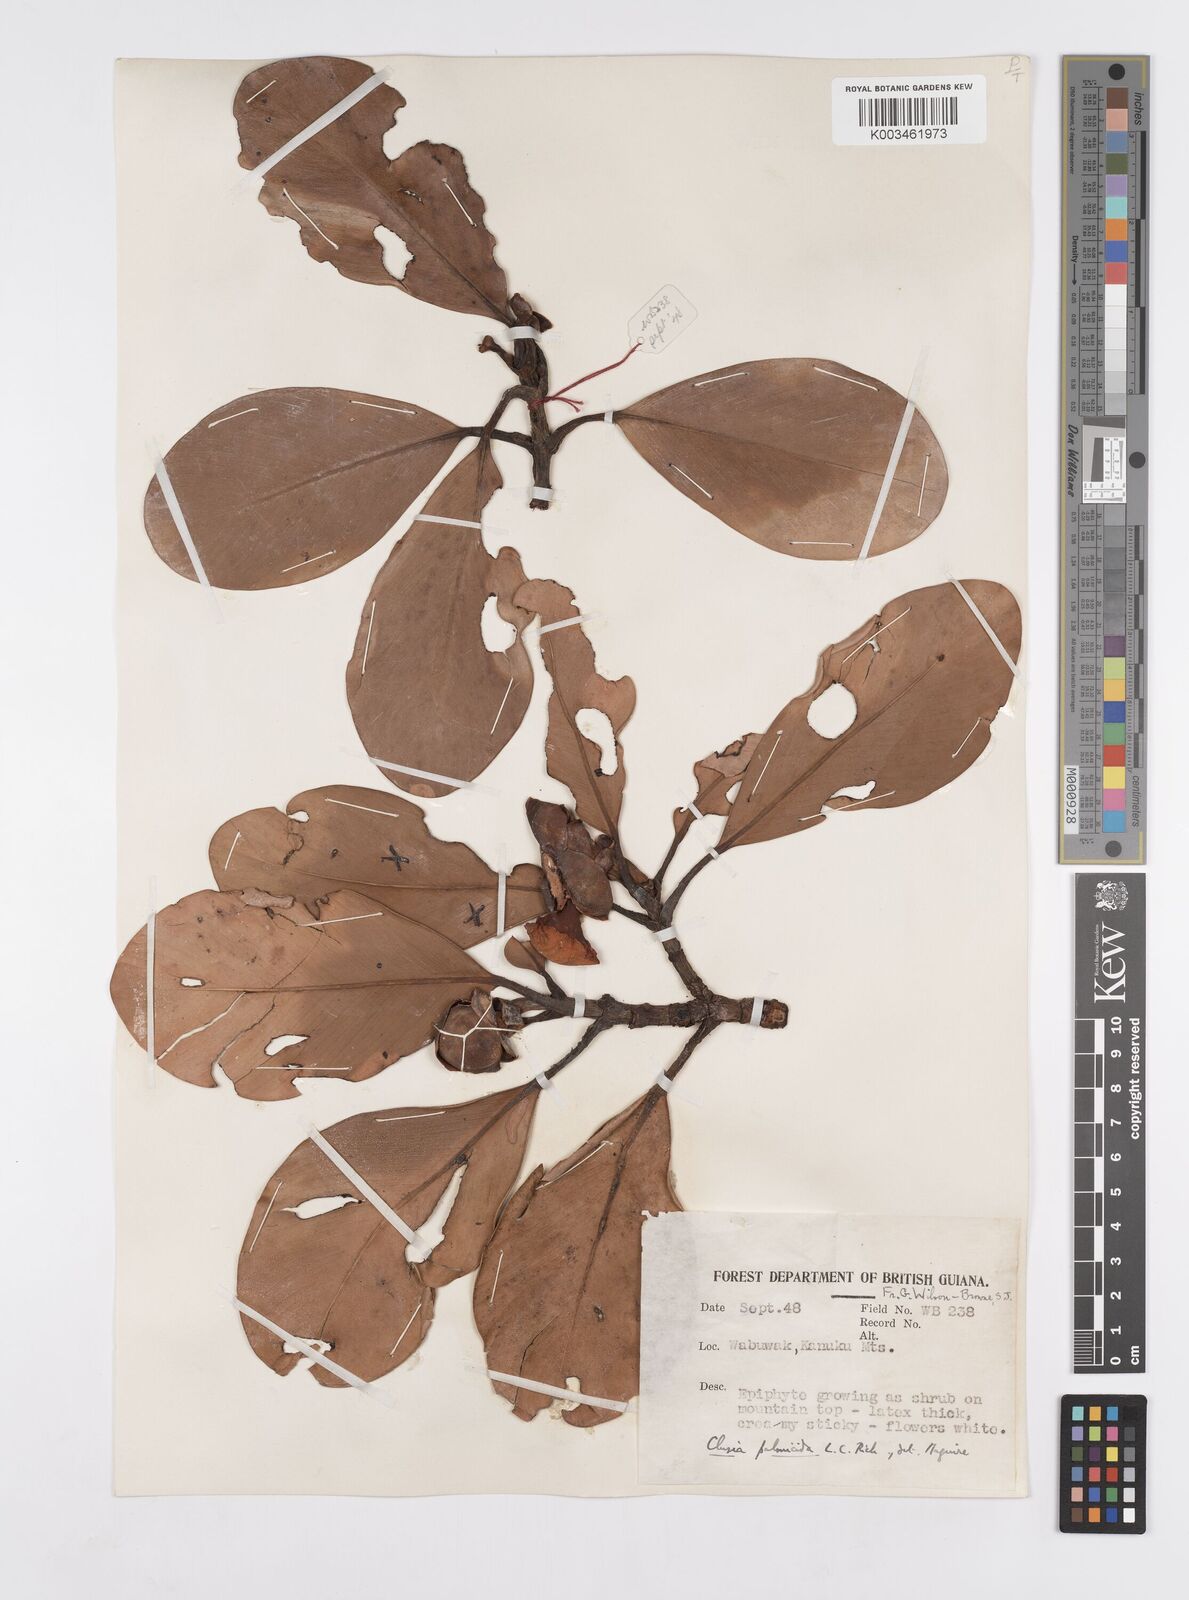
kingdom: Plantae
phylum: Tracheophyta
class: Magnoliopsida
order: Malpighiales
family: Clusiaceae
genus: Clusia
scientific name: Clusia palmicida
